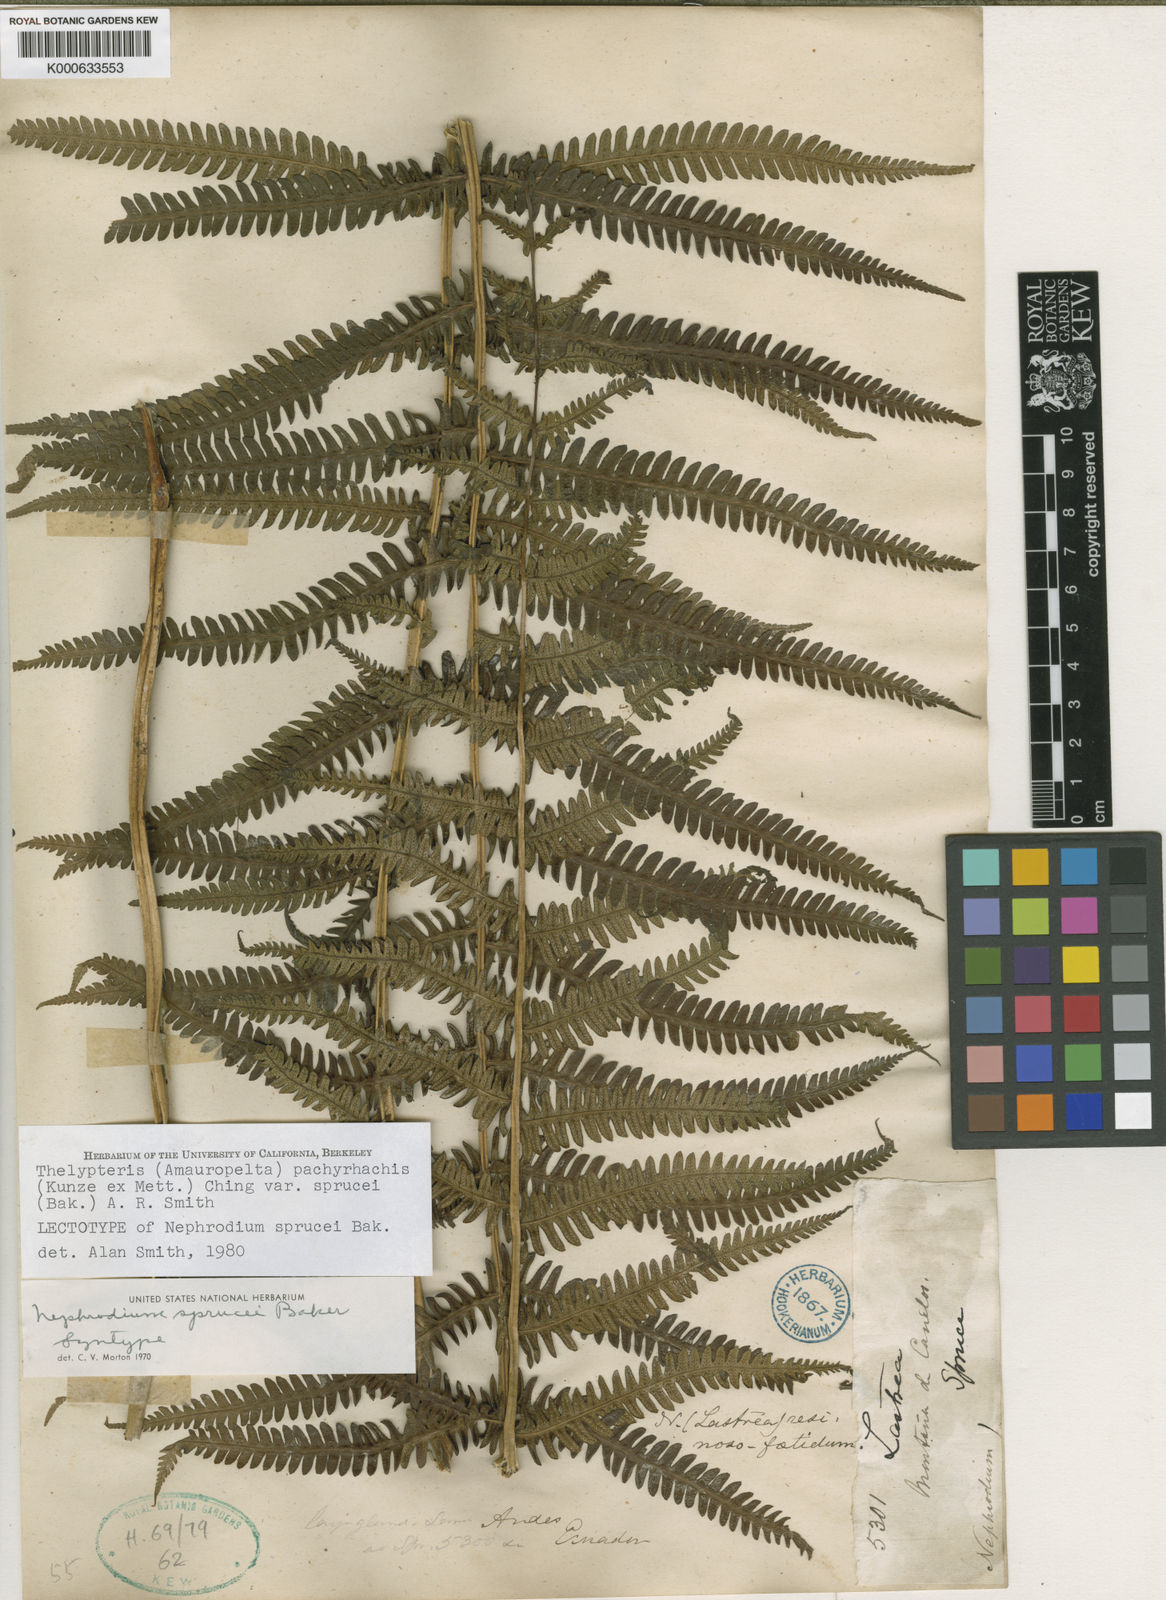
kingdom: Plantae
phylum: Tracheophyta
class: Polypodiopsida
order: Polypodiales
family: Thelypteridaceae
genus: Amauropelta
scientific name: Amauropelta pachyrhachis
